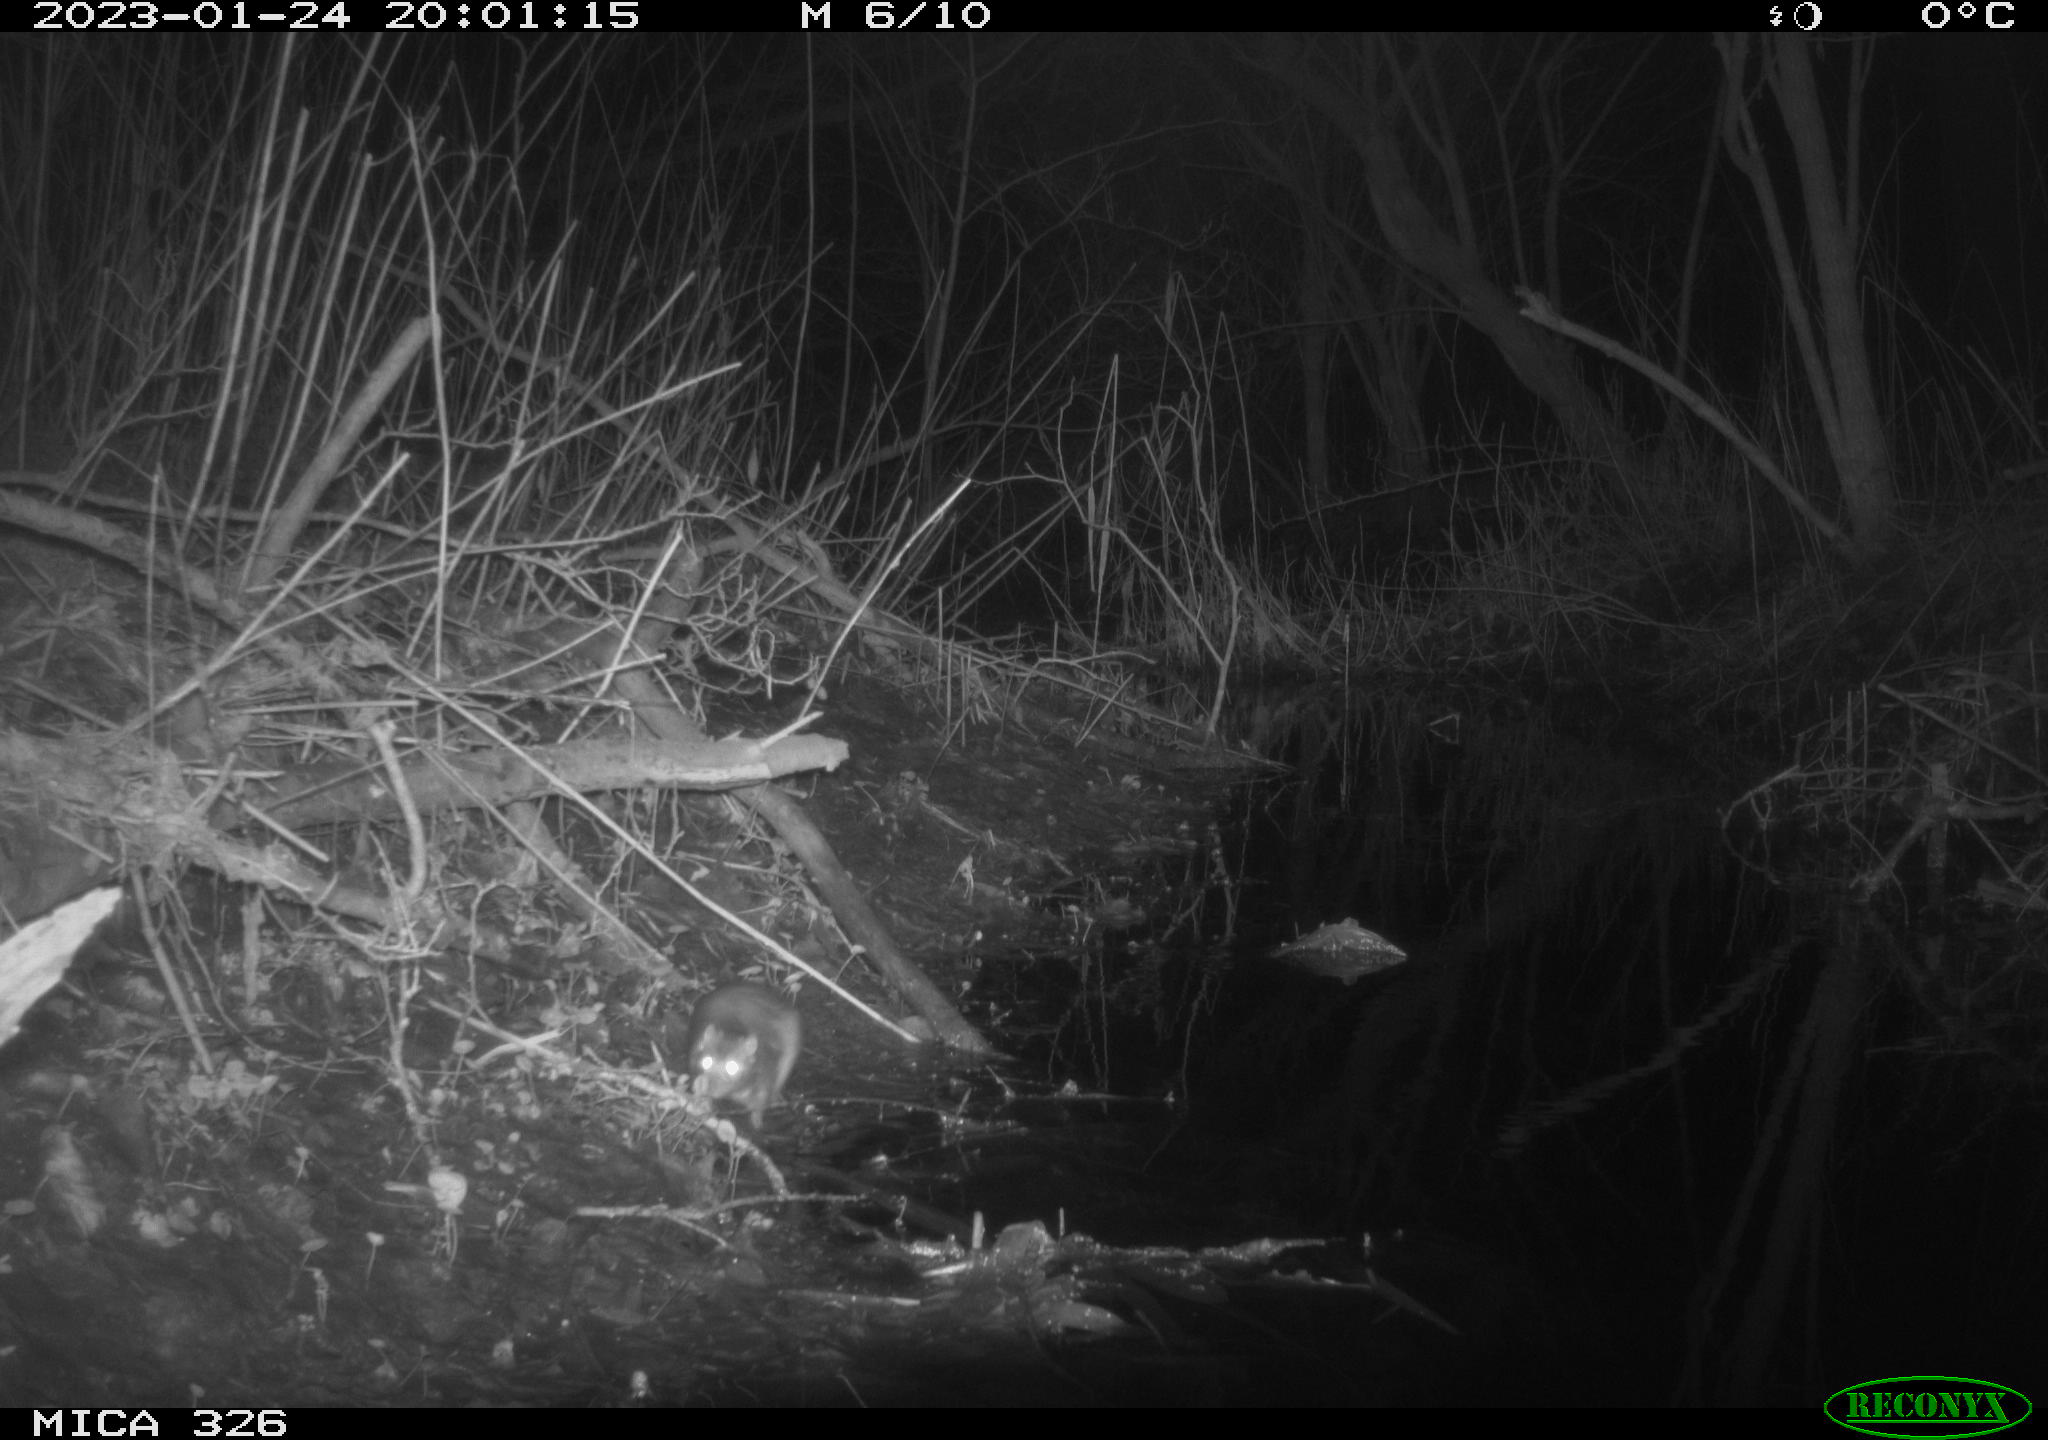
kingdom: Animalia
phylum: Chordata
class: Mammalia
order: Rodentia
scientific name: Rodentia
